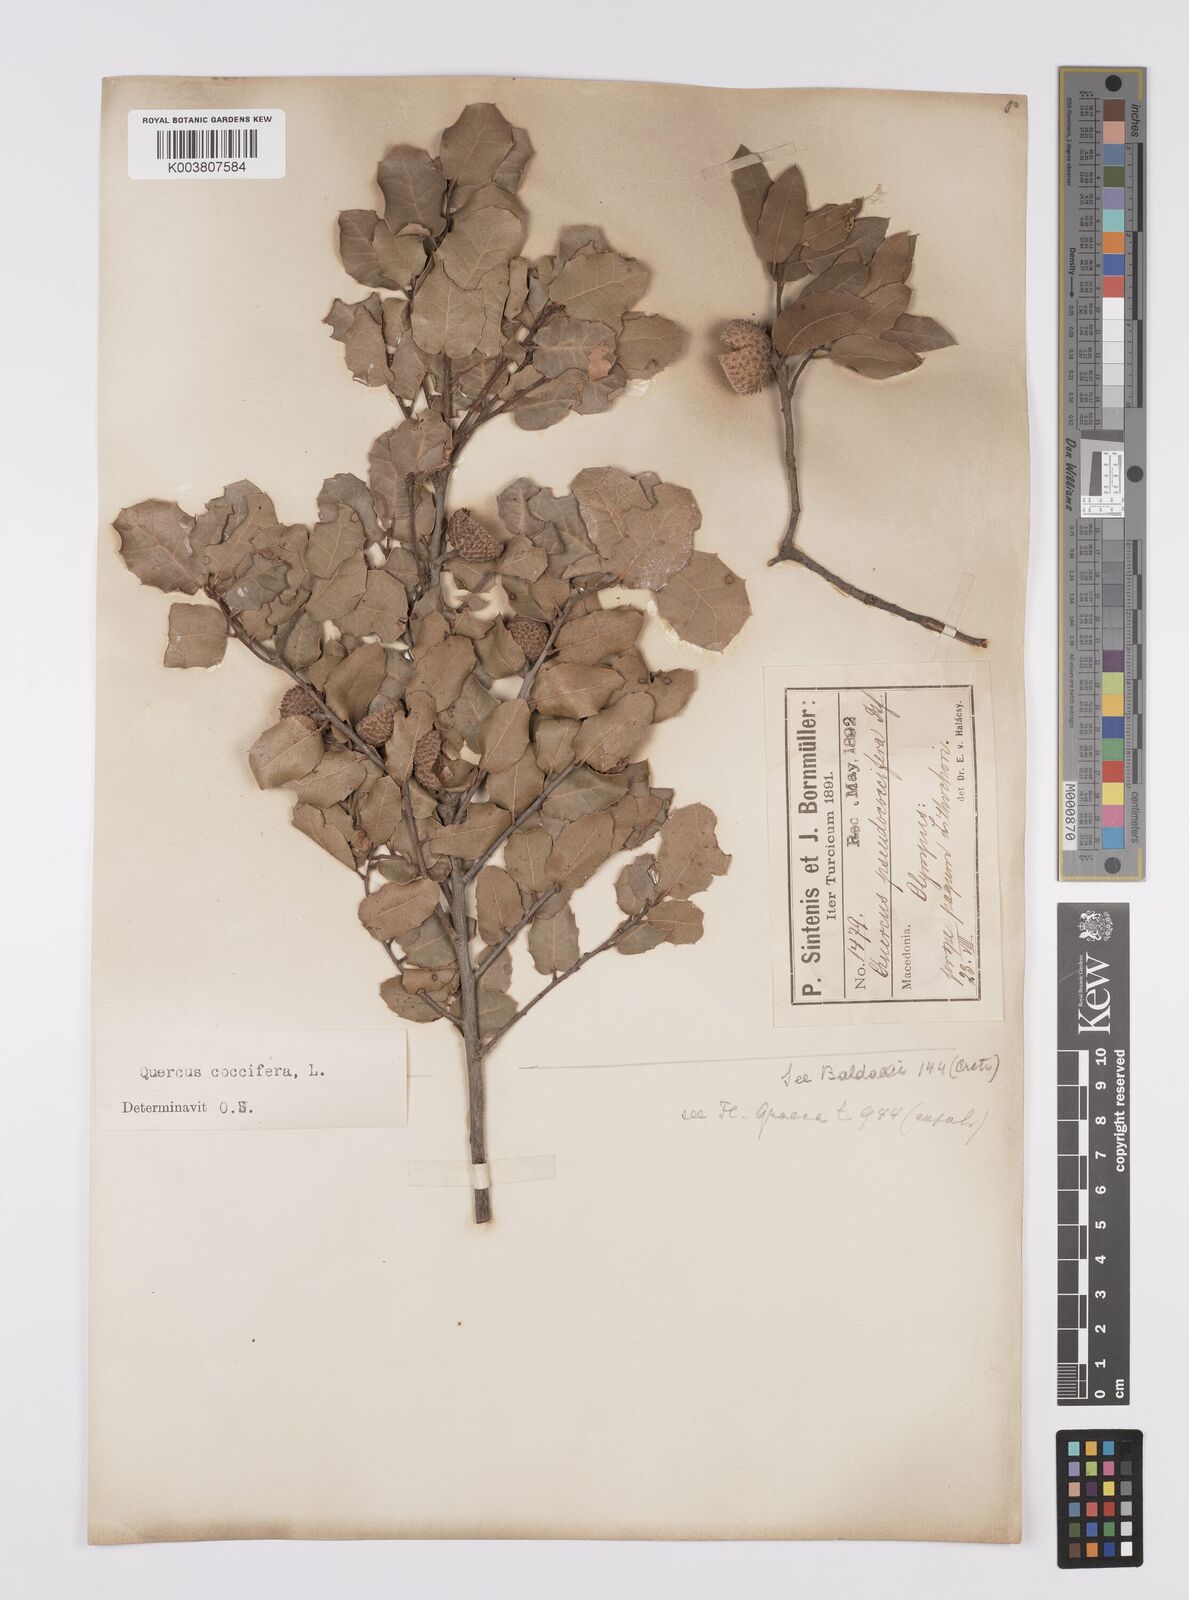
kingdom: Plantae
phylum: Tracheophyta
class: Magnoliopsida
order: Fagales
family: Fagaceae
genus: Quercus
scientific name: Quercus coccifera
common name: Kermes oak
